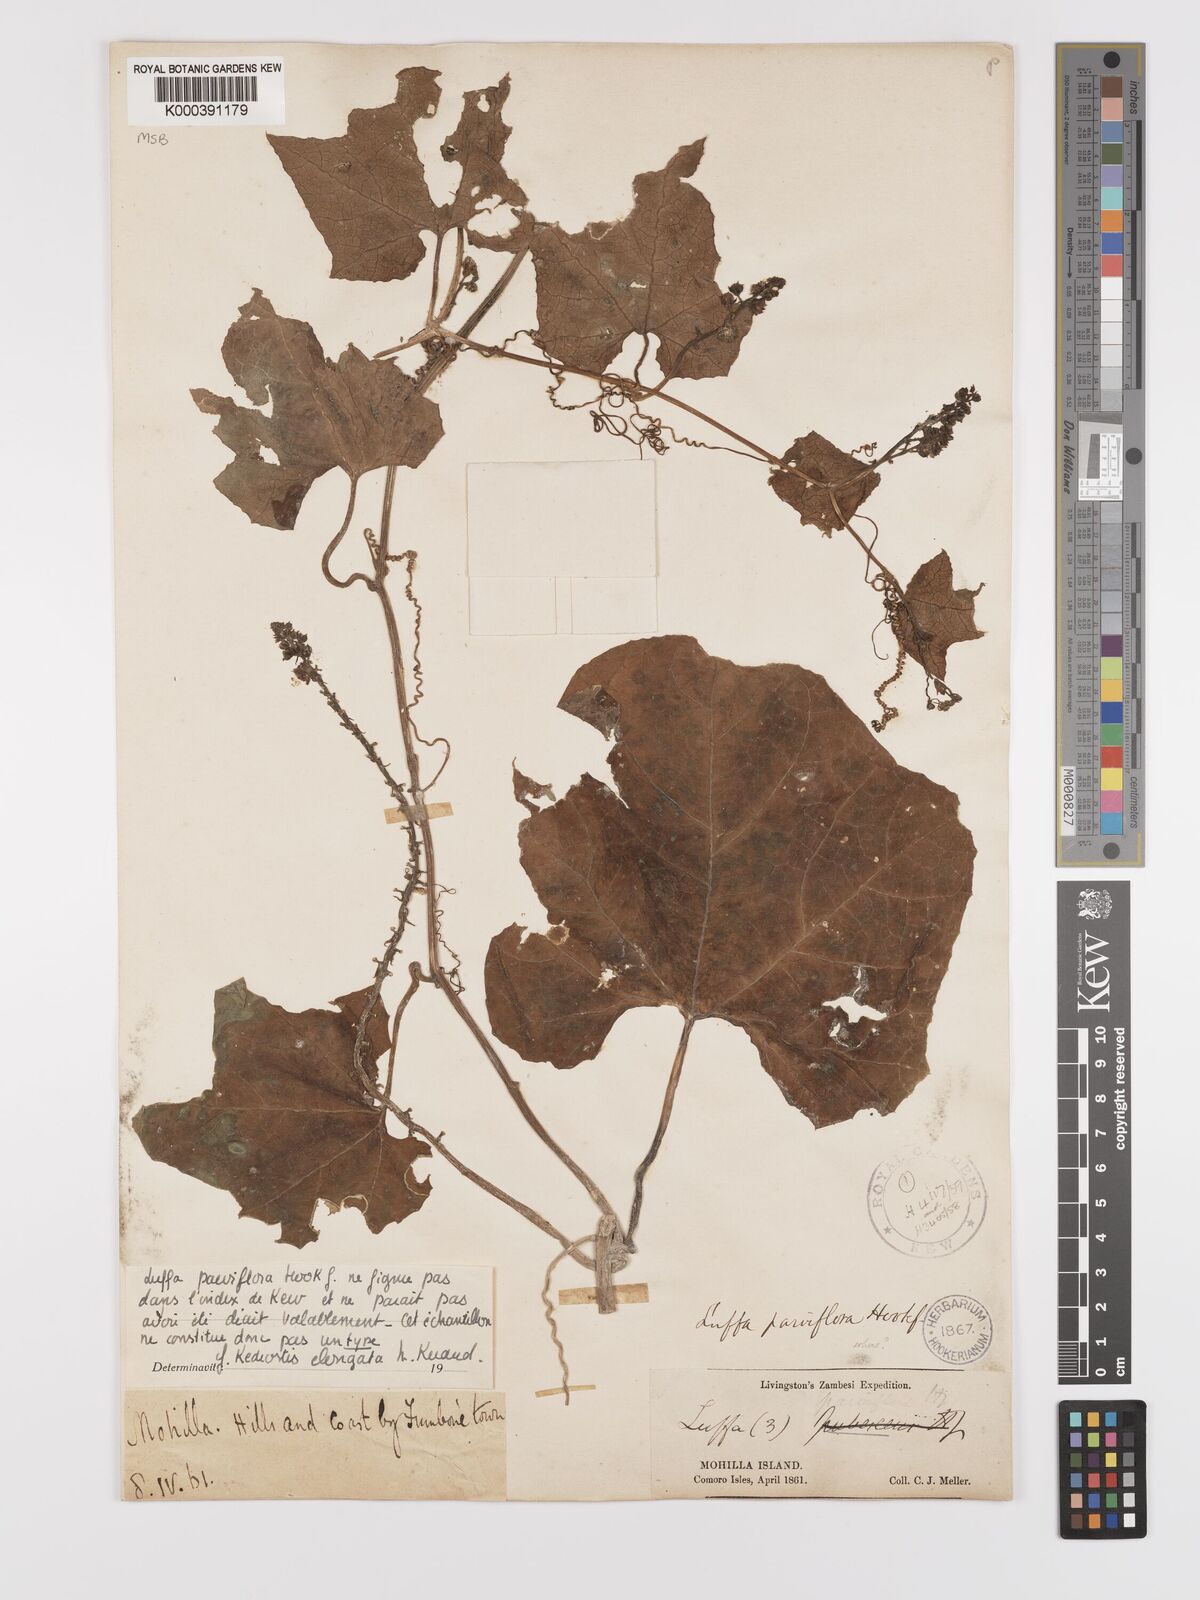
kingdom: Plantae
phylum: Tracheophyta
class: Magnoliopsida
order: Cucurbitales
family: Cucurbitaceae
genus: Kedrostis
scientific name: Kedrostis elongata
